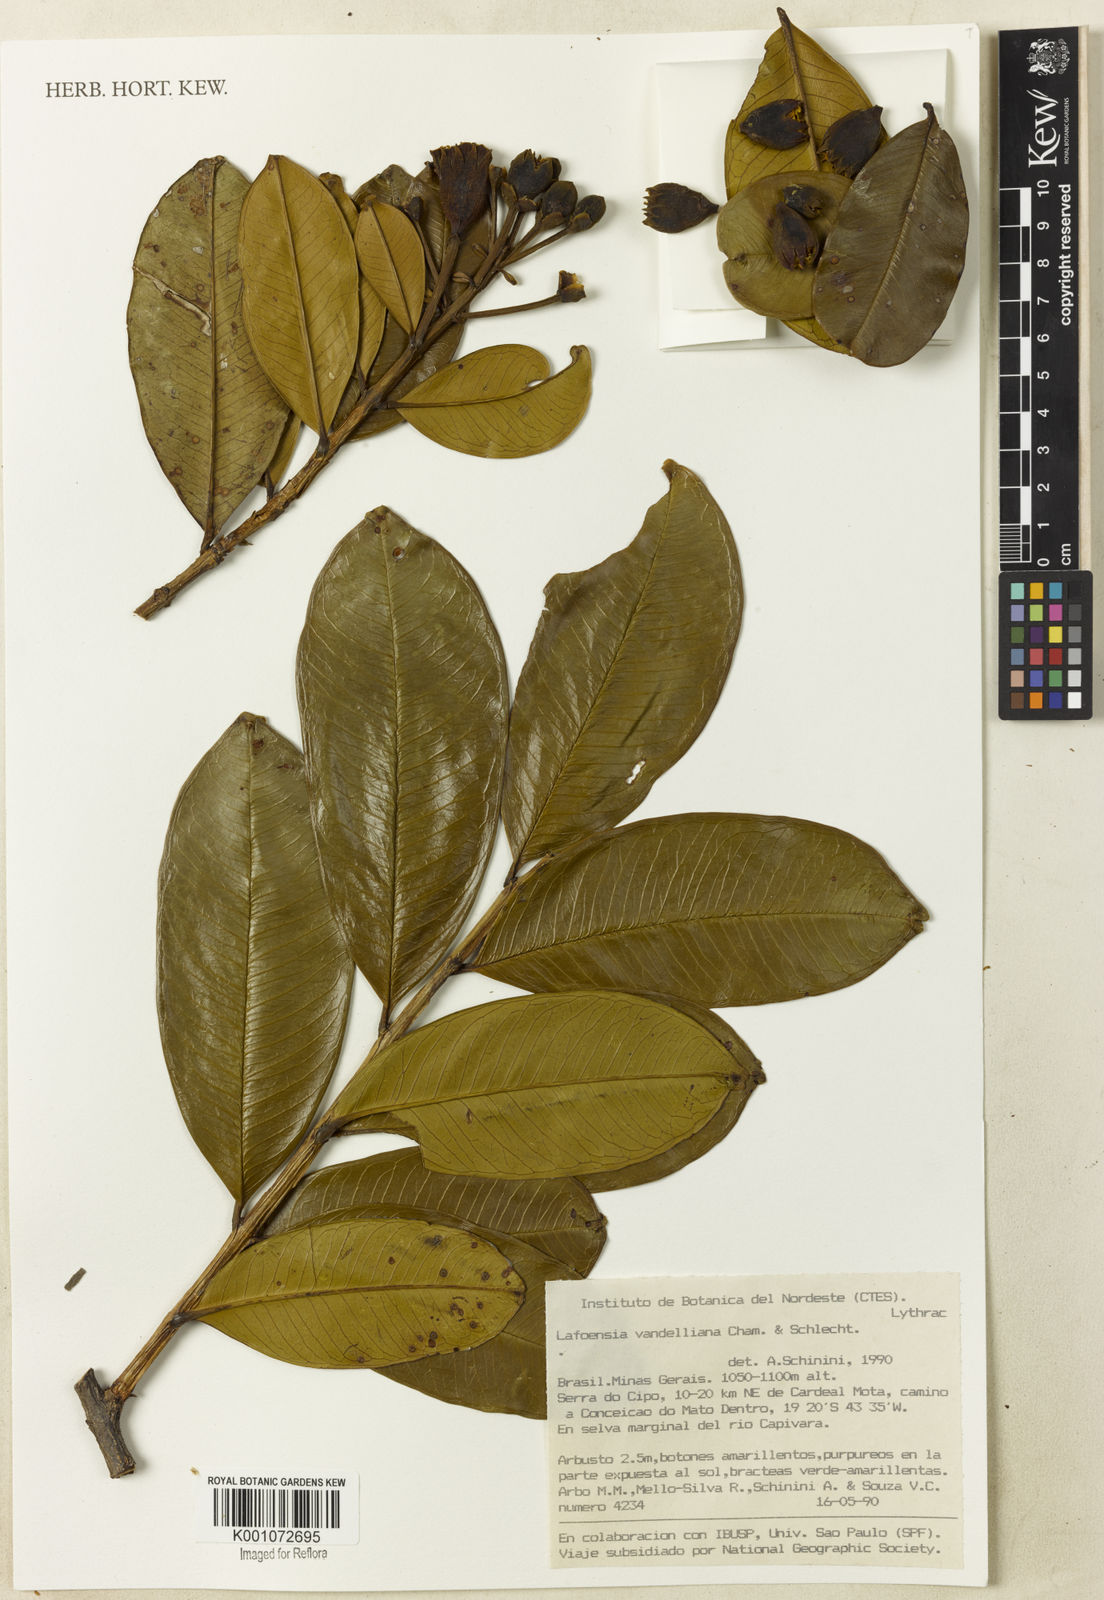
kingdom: Plantae
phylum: Tracheophyta
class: Magnoliopsida
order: Myrtales
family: Lythraceae
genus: Lafoensia
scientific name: Lafoensia vandelliana
